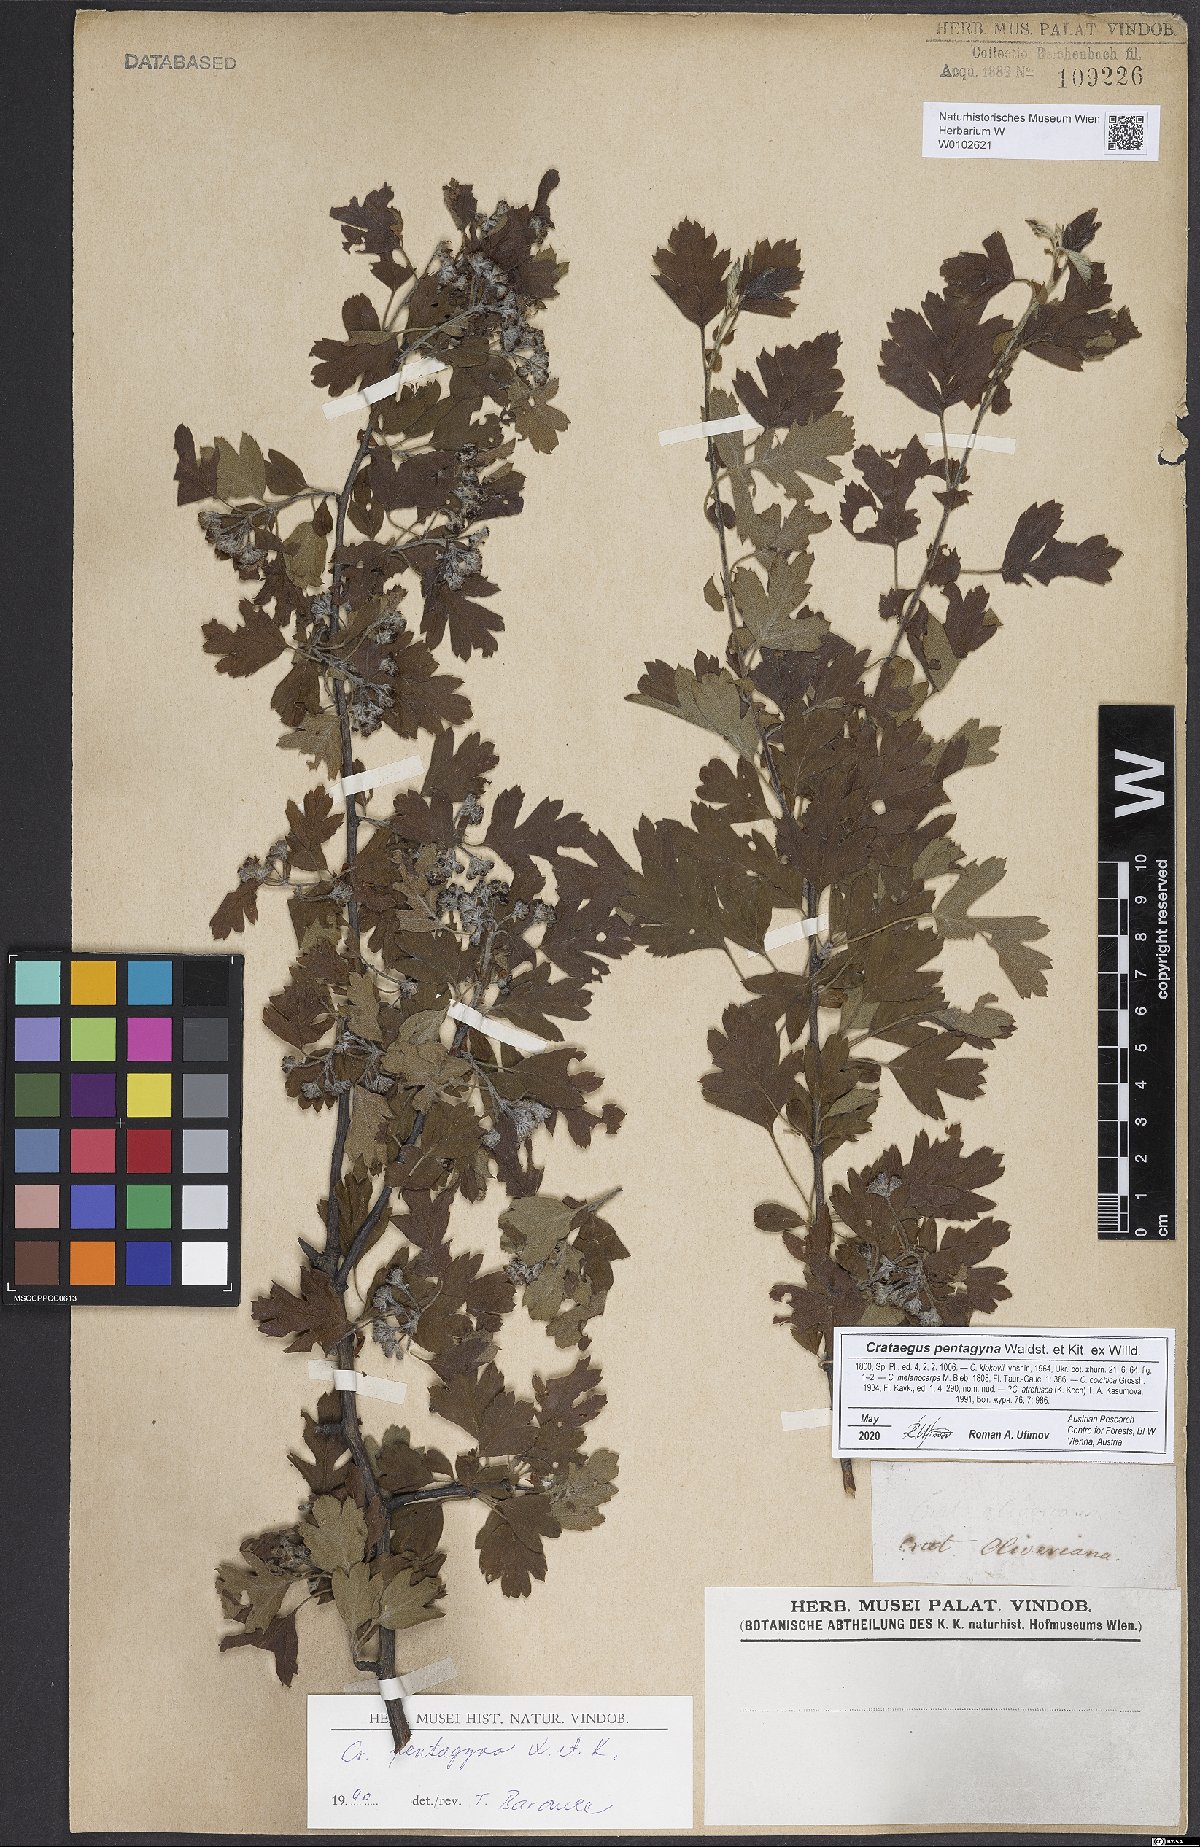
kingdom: Plantae
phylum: Tracheophyta
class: Magnoliopsida
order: Rosales
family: Rosaceae
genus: Crataegus
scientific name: Crataegus pentagyna
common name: Small-flowered black hawthorn
